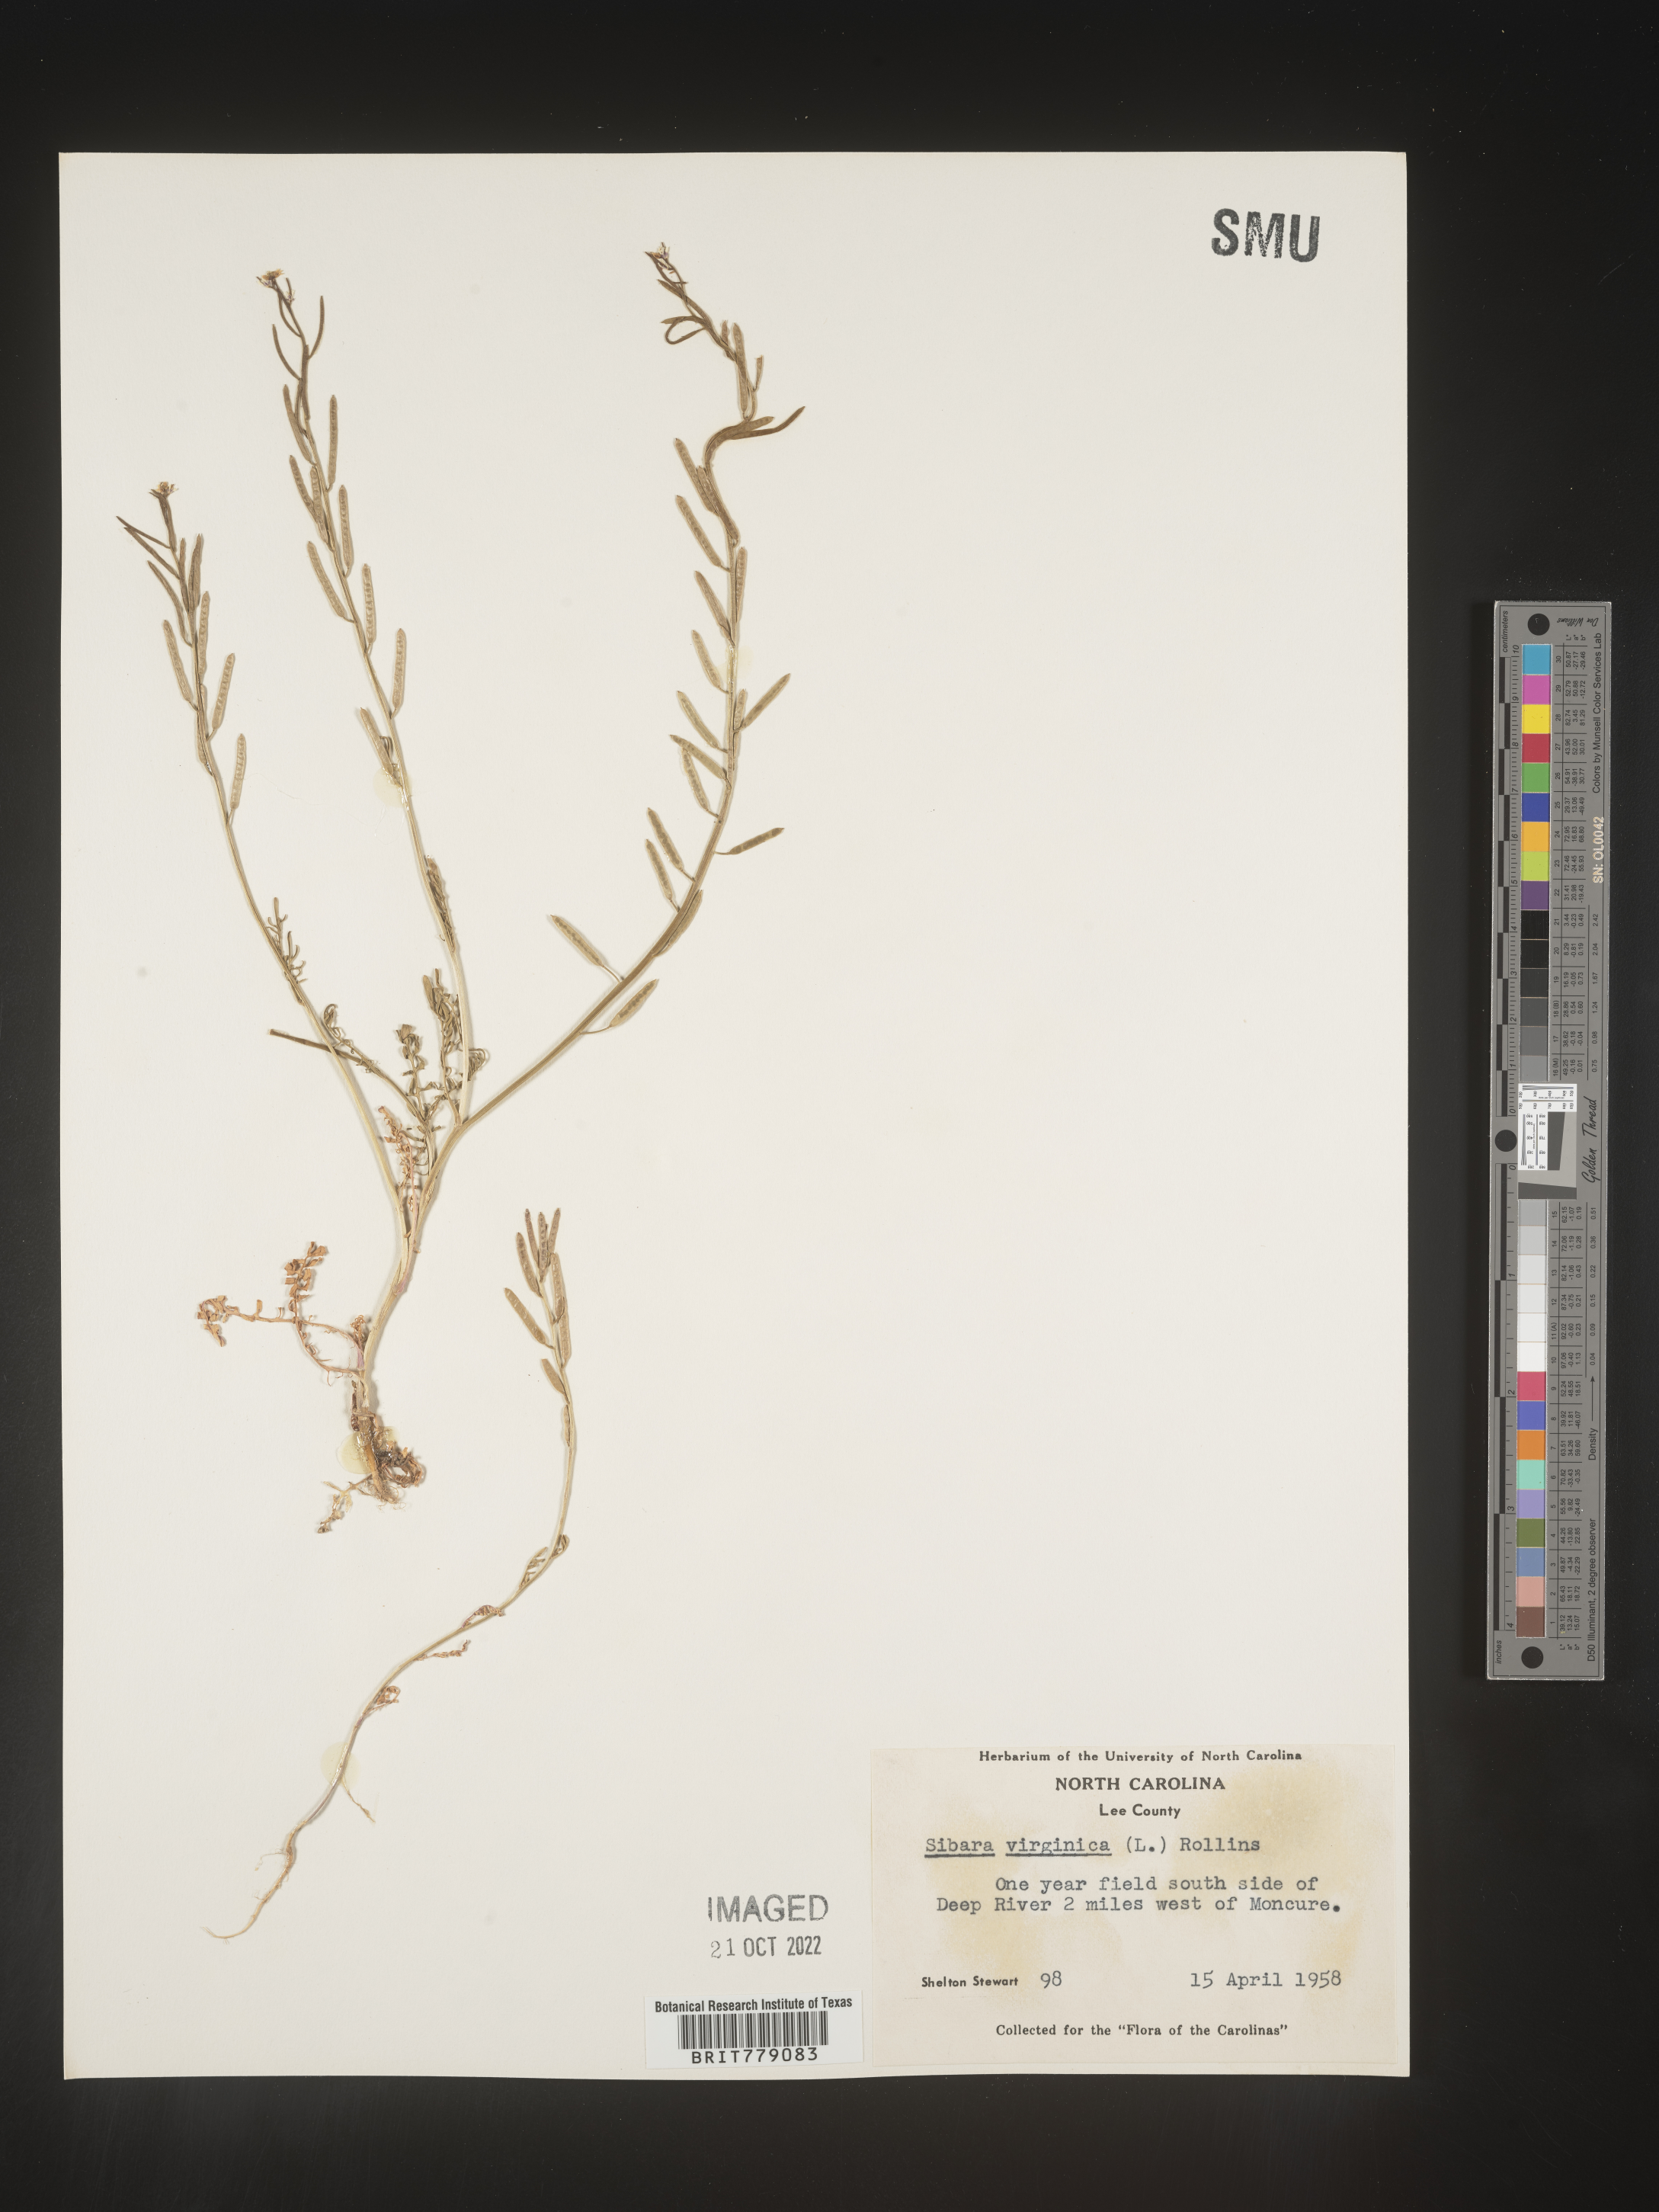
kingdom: Plantae
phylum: Tracheophyta
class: Magnoliopsida
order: Brassicales
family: Brassicaceae
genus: Sibara
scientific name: Sibara
